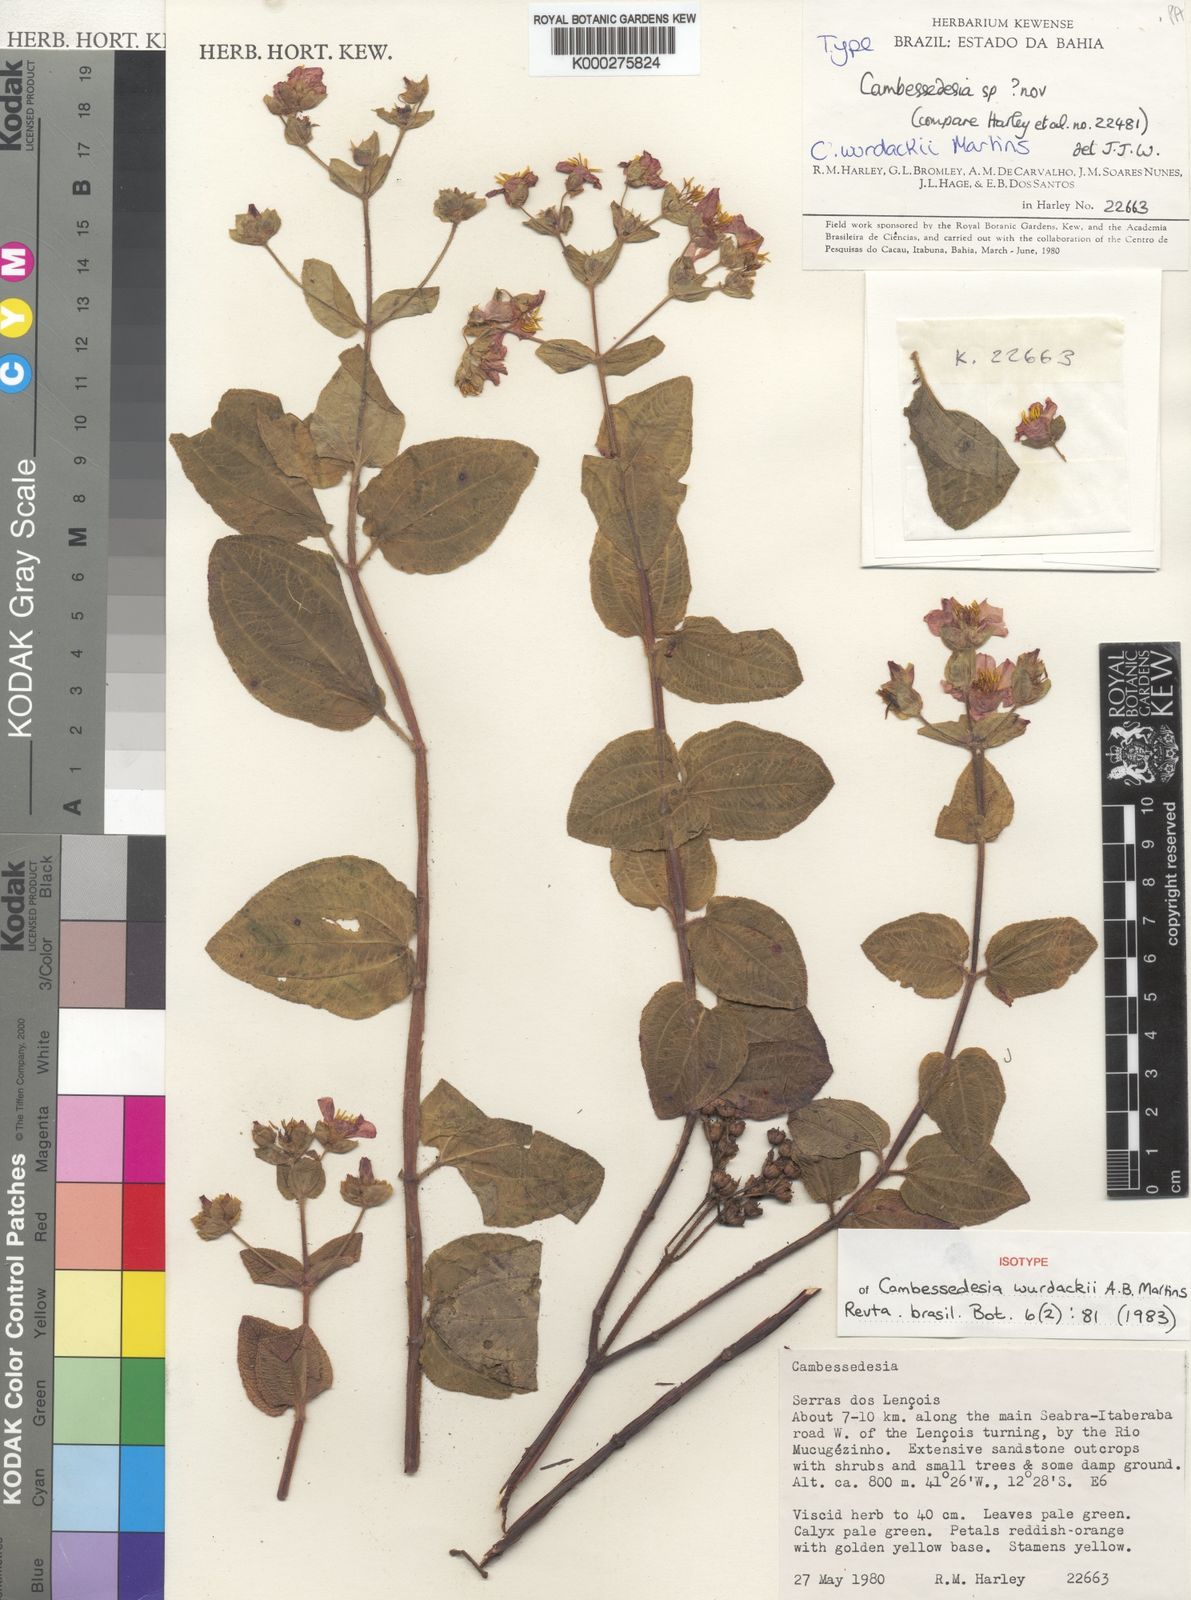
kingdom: Plantae
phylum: Tracheophyta
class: Magnoliopsida
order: Myrtales
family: Melastomataceae
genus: Cambessedesia
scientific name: Cambessedesia wurdackii
